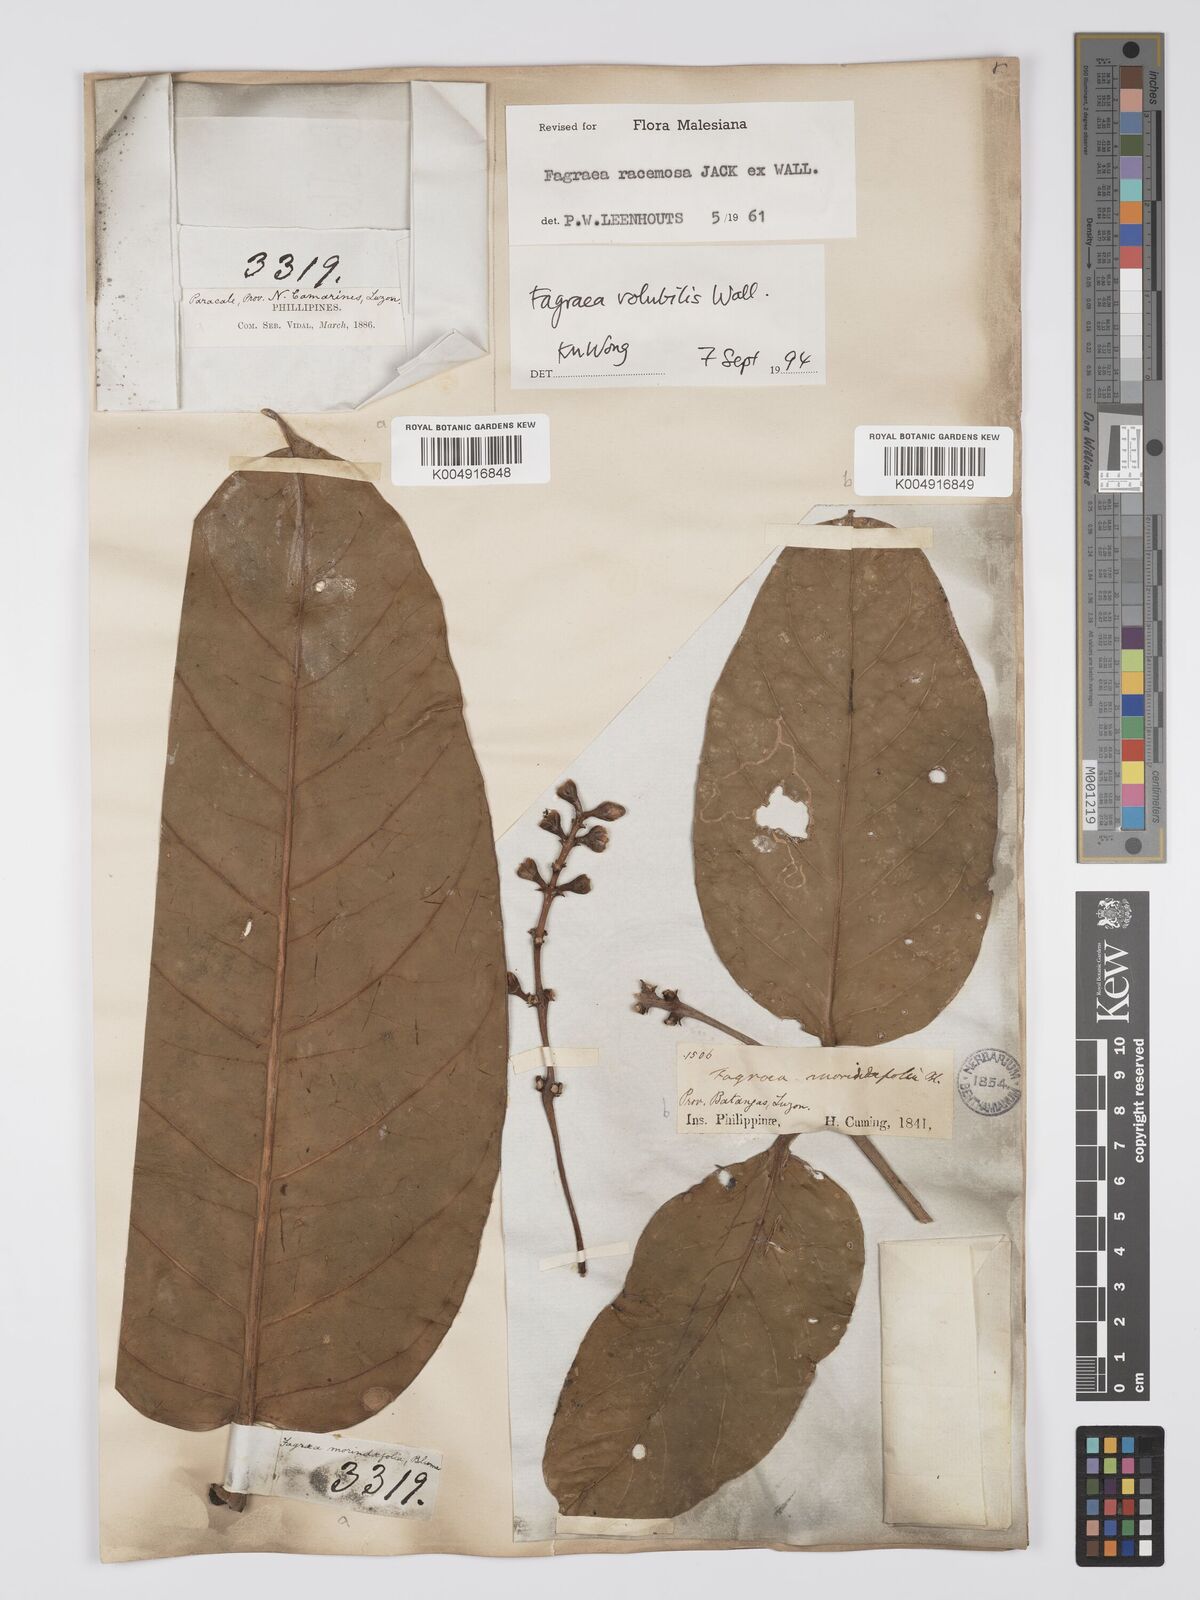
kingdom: Plantae
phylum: Tracheophyta
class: Magnoliopsida
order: Gentianales
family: Gentianaceae
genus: Utania
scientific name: Utania racemosa
